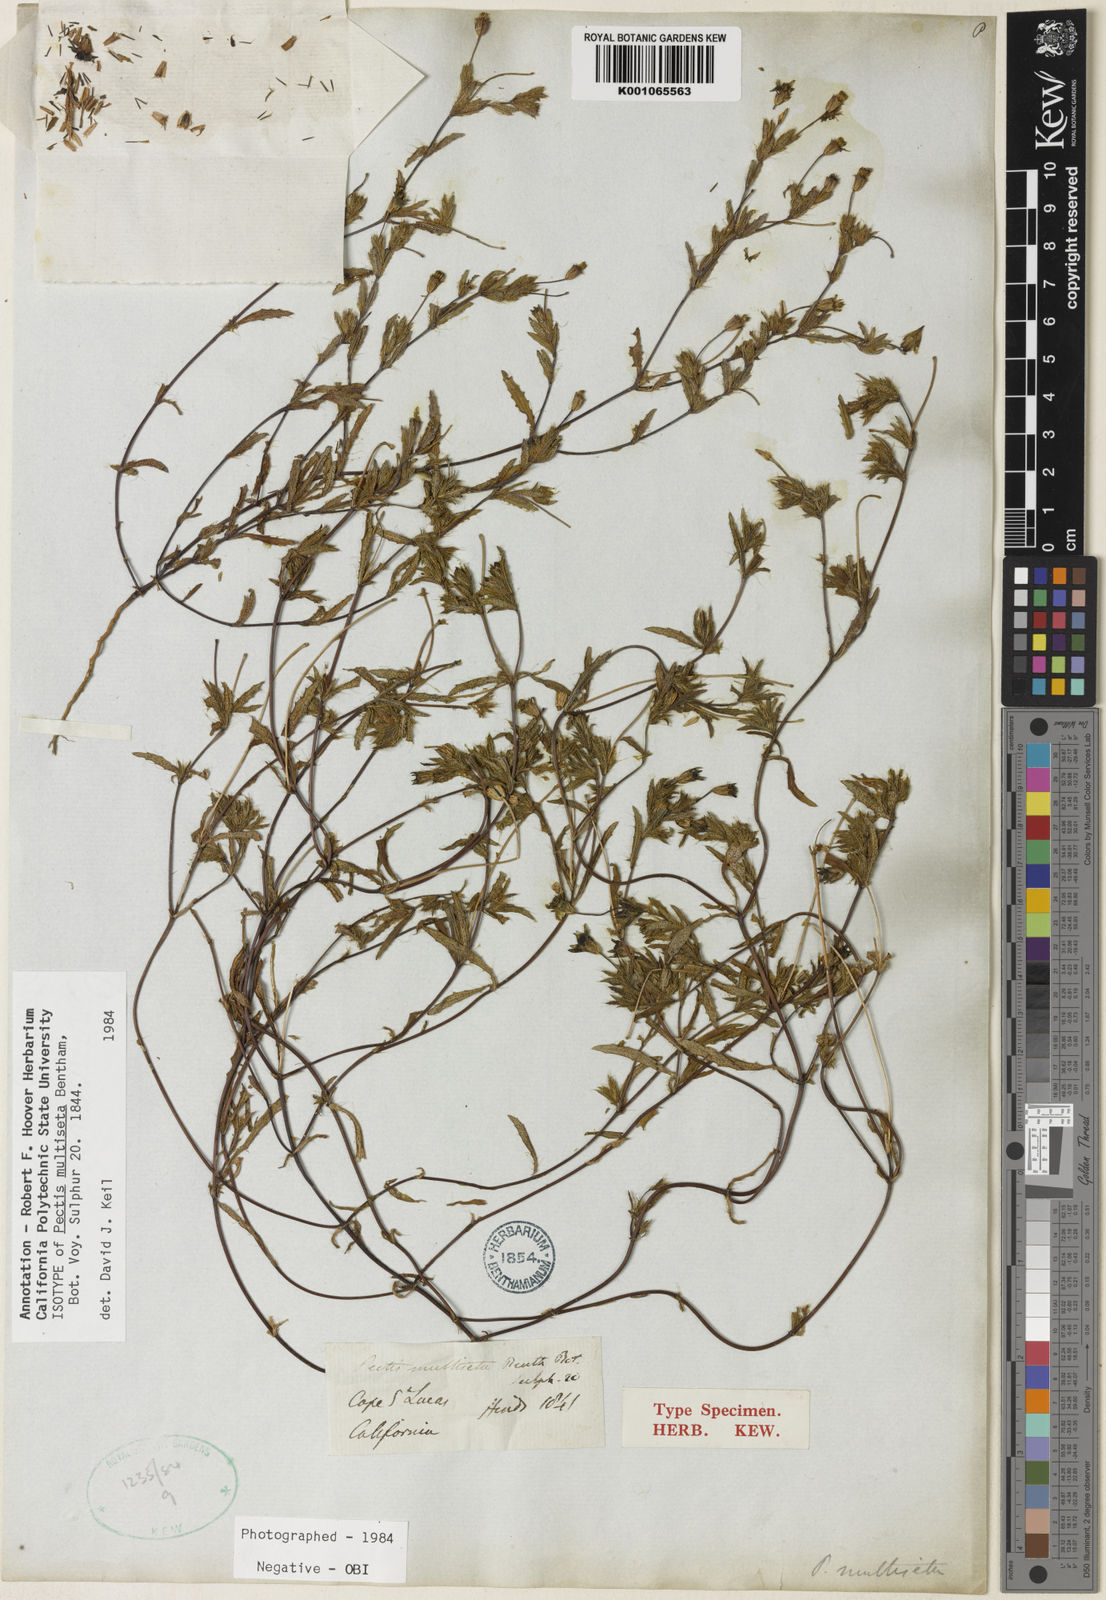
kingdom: Plantae
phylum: Tracheophyta
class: Magnoliopsida
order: Asterales
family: Asteraceae
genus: Pectis
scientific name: Pectis multiseta
